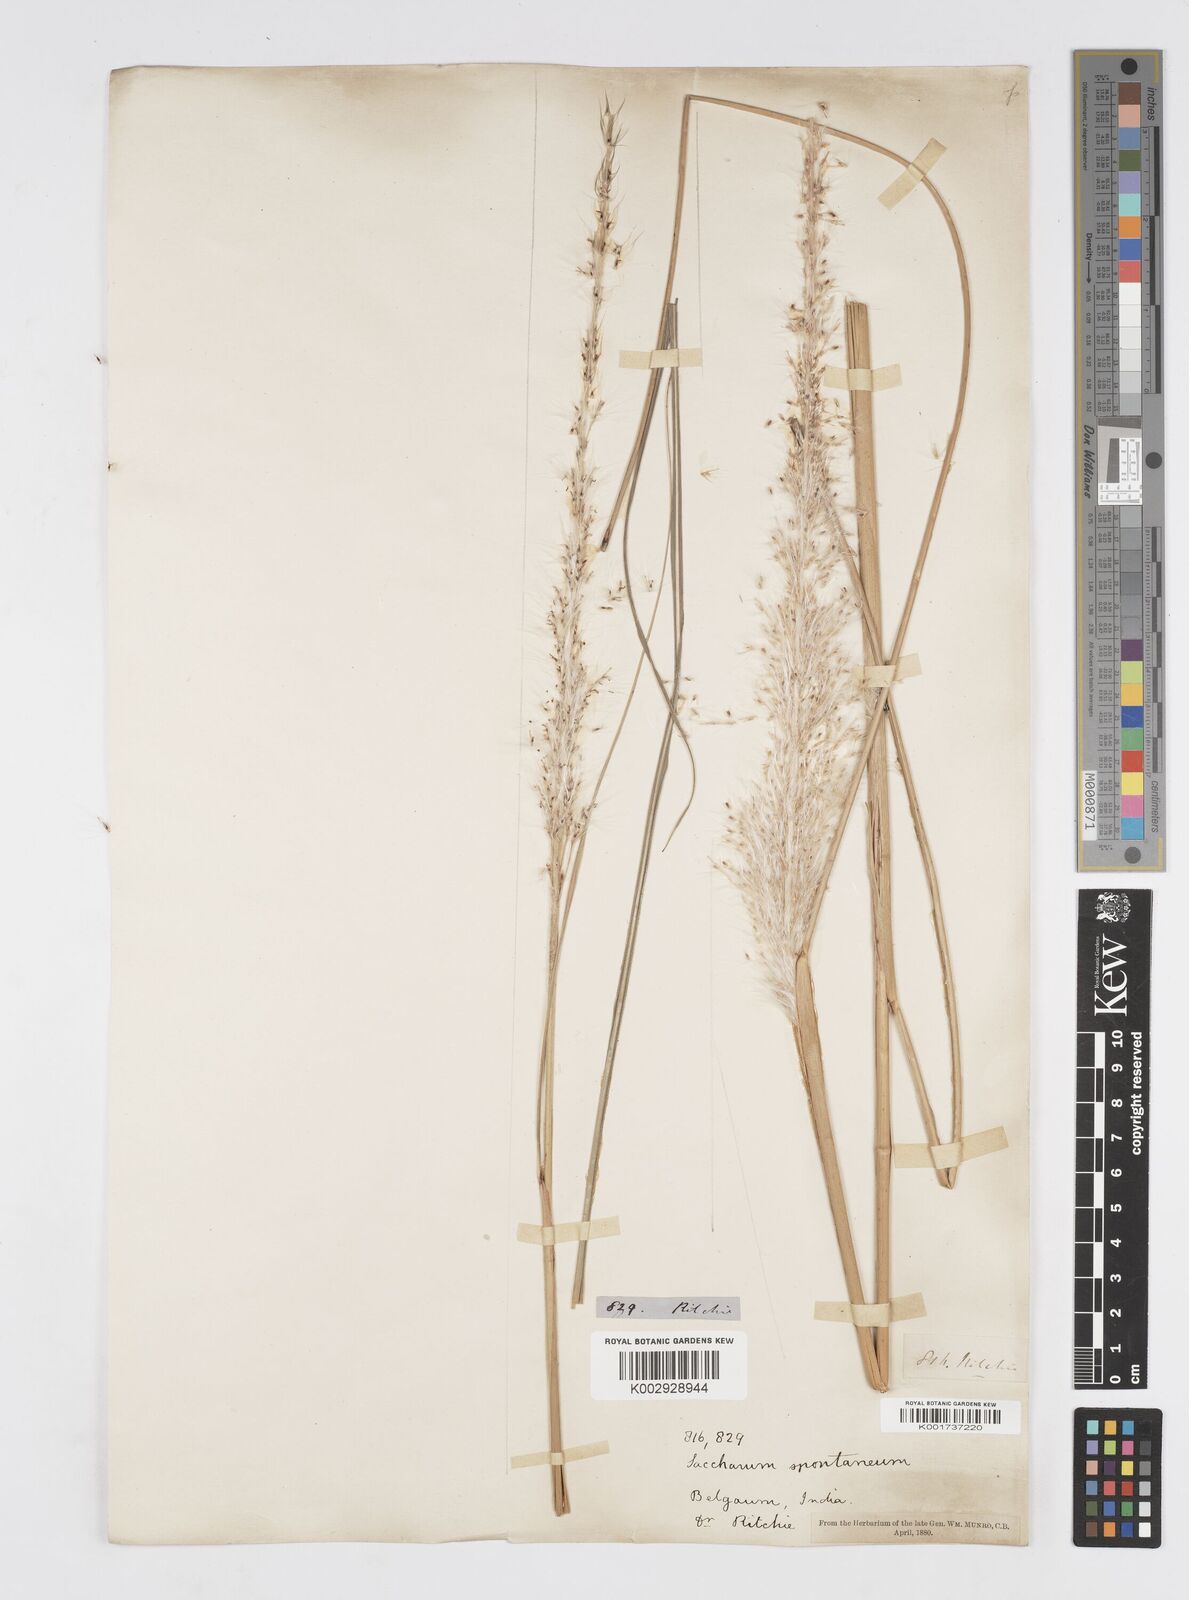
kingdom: Plantae
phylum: Tracheophyta
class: Liliopsida
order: Poales
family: Poaceae
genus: Saccharum
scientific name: Saccharum spontaneum
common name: Wild sugarcane
